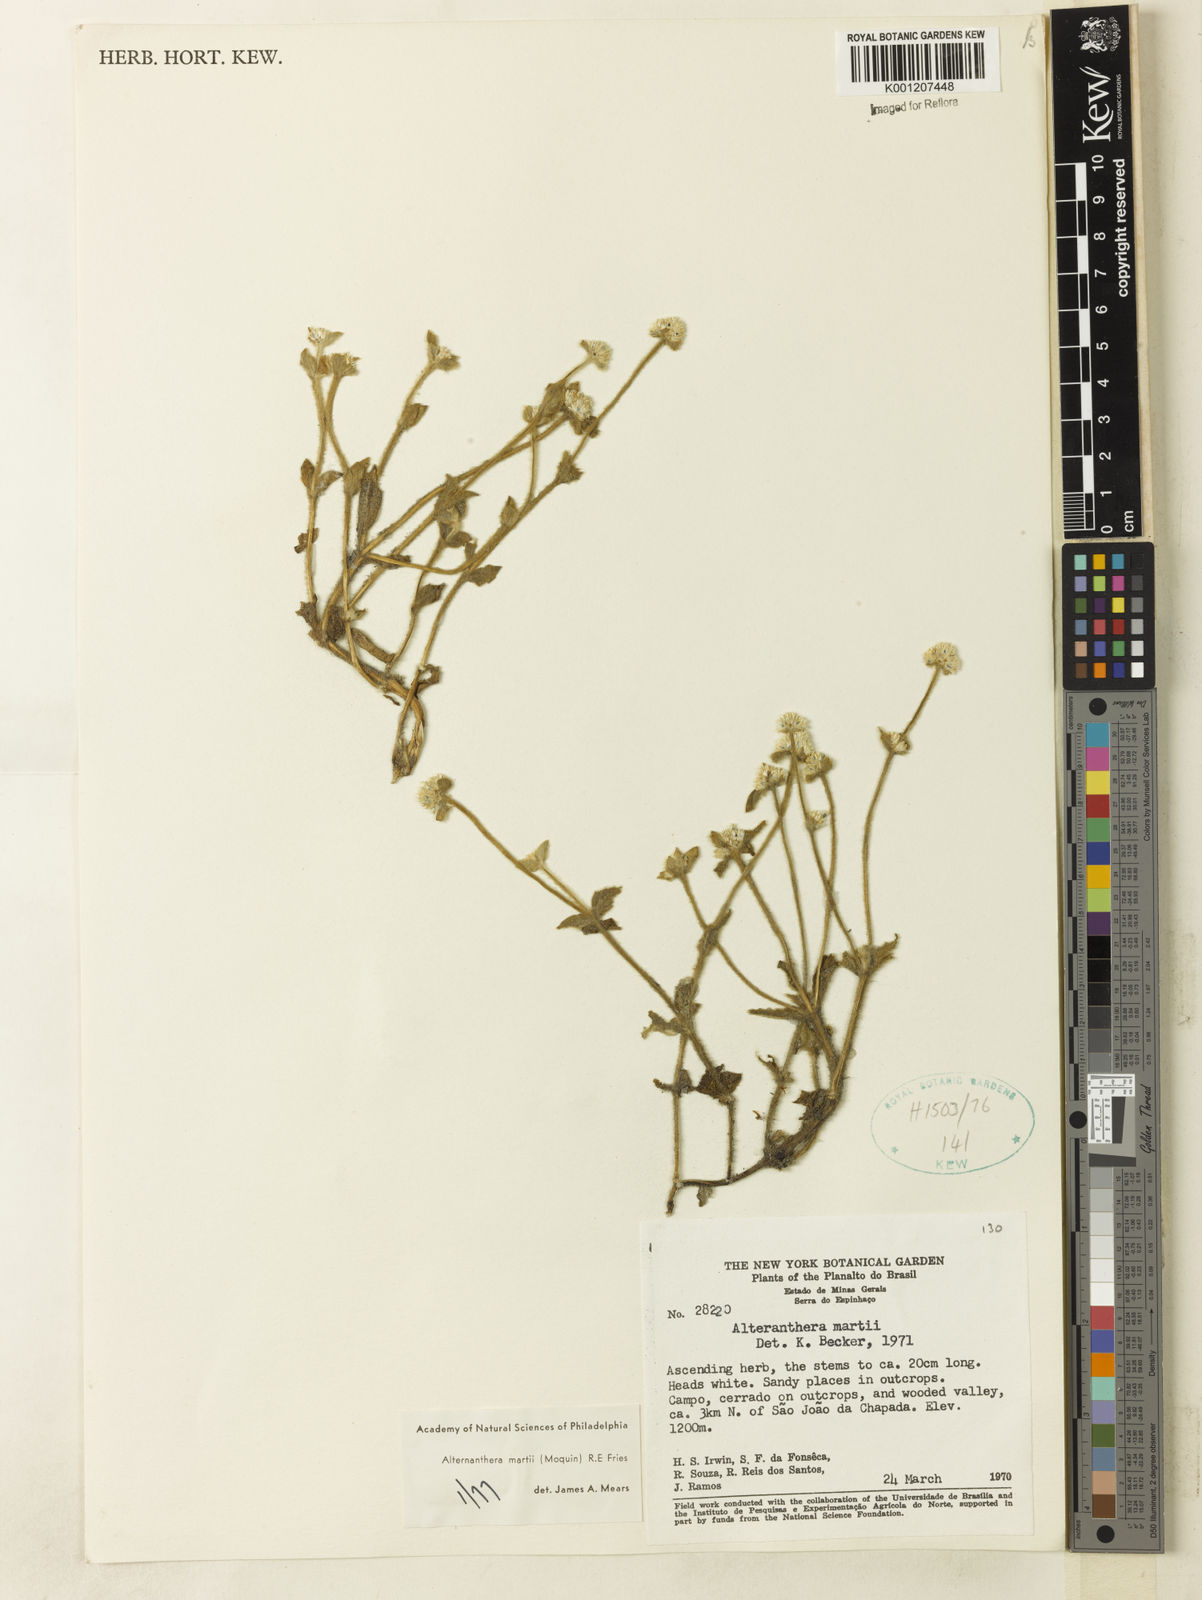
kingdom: Plantae
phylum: Tracheophyta
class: Magnoliopsida
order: Caryophyllales
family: Amaranthaceae
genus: Alternanthera
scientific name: Alternanthera martii
